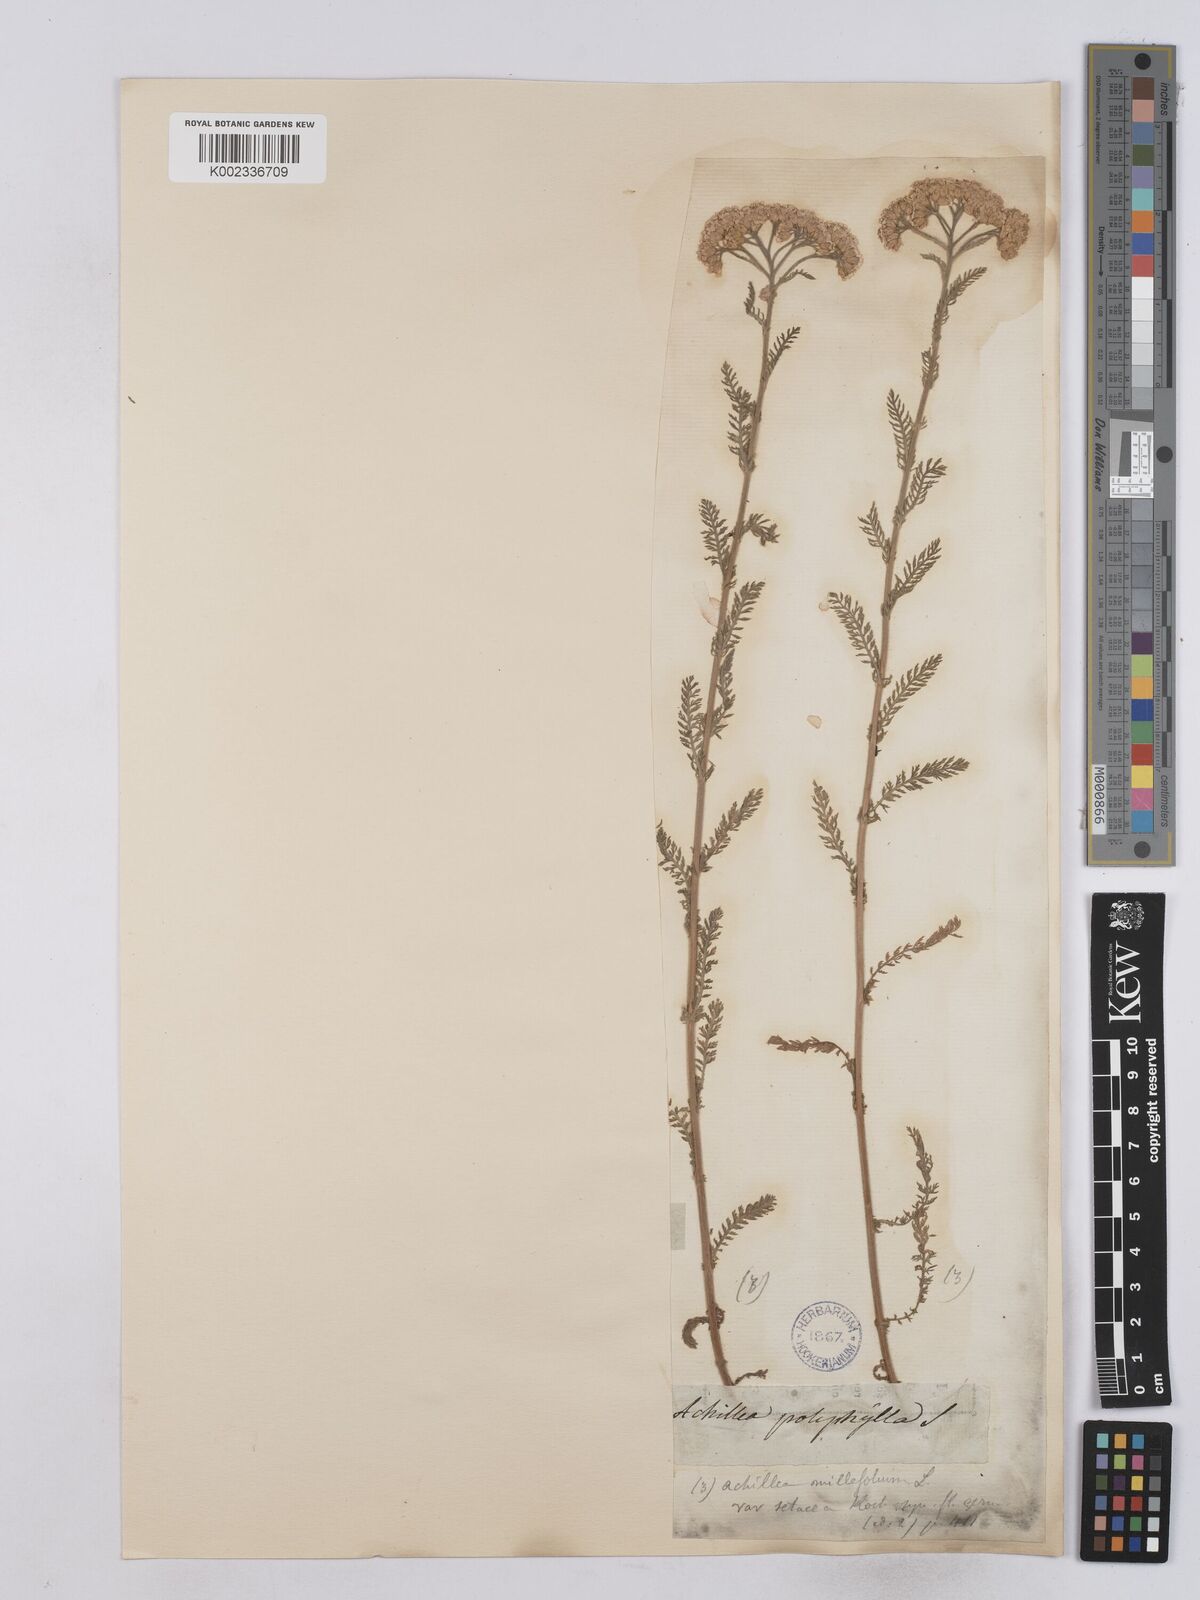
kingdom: Plantae
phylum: Tracheophyta
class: Magnoliopsida
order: Asterales
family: Asteraceae
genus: Achillea
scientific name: Achillea setacea
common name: Bristly yarrow
